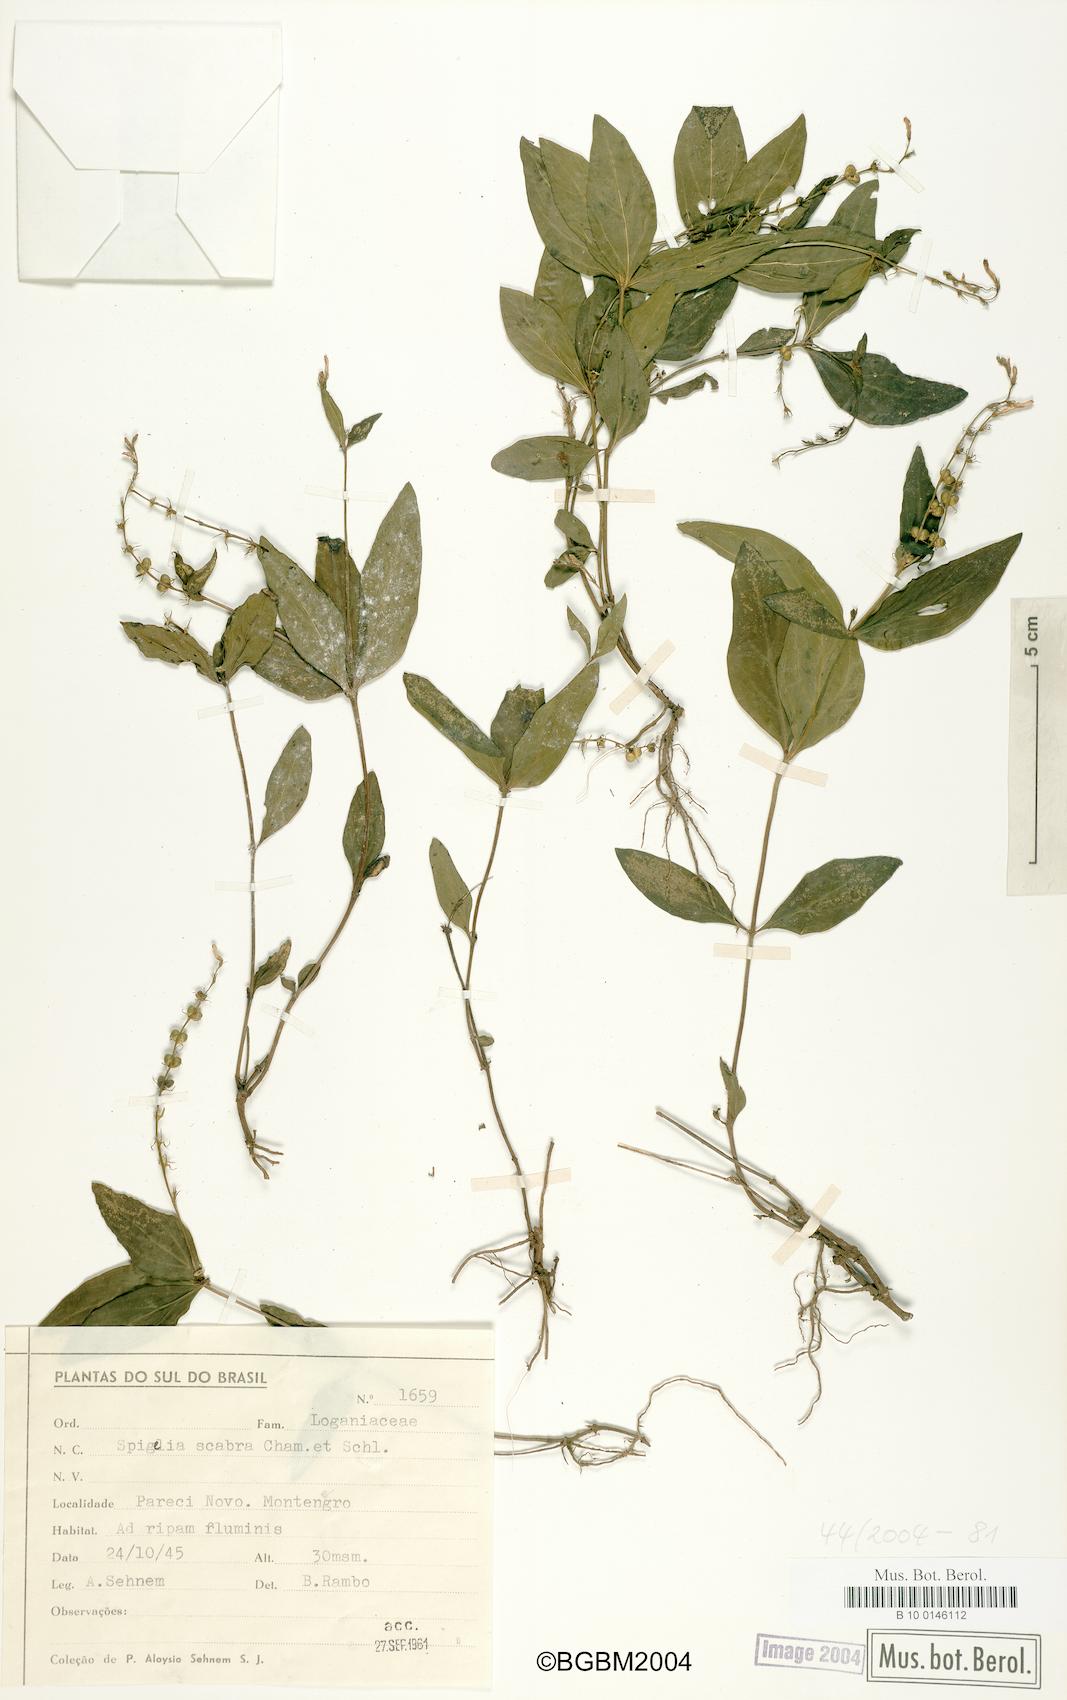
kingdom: Plantae
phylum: Tracheophyta
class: Magnoliopsida
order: Gentianales
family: Loganiaceae
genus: Spigelia
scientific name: Spigelia humboldtiana
